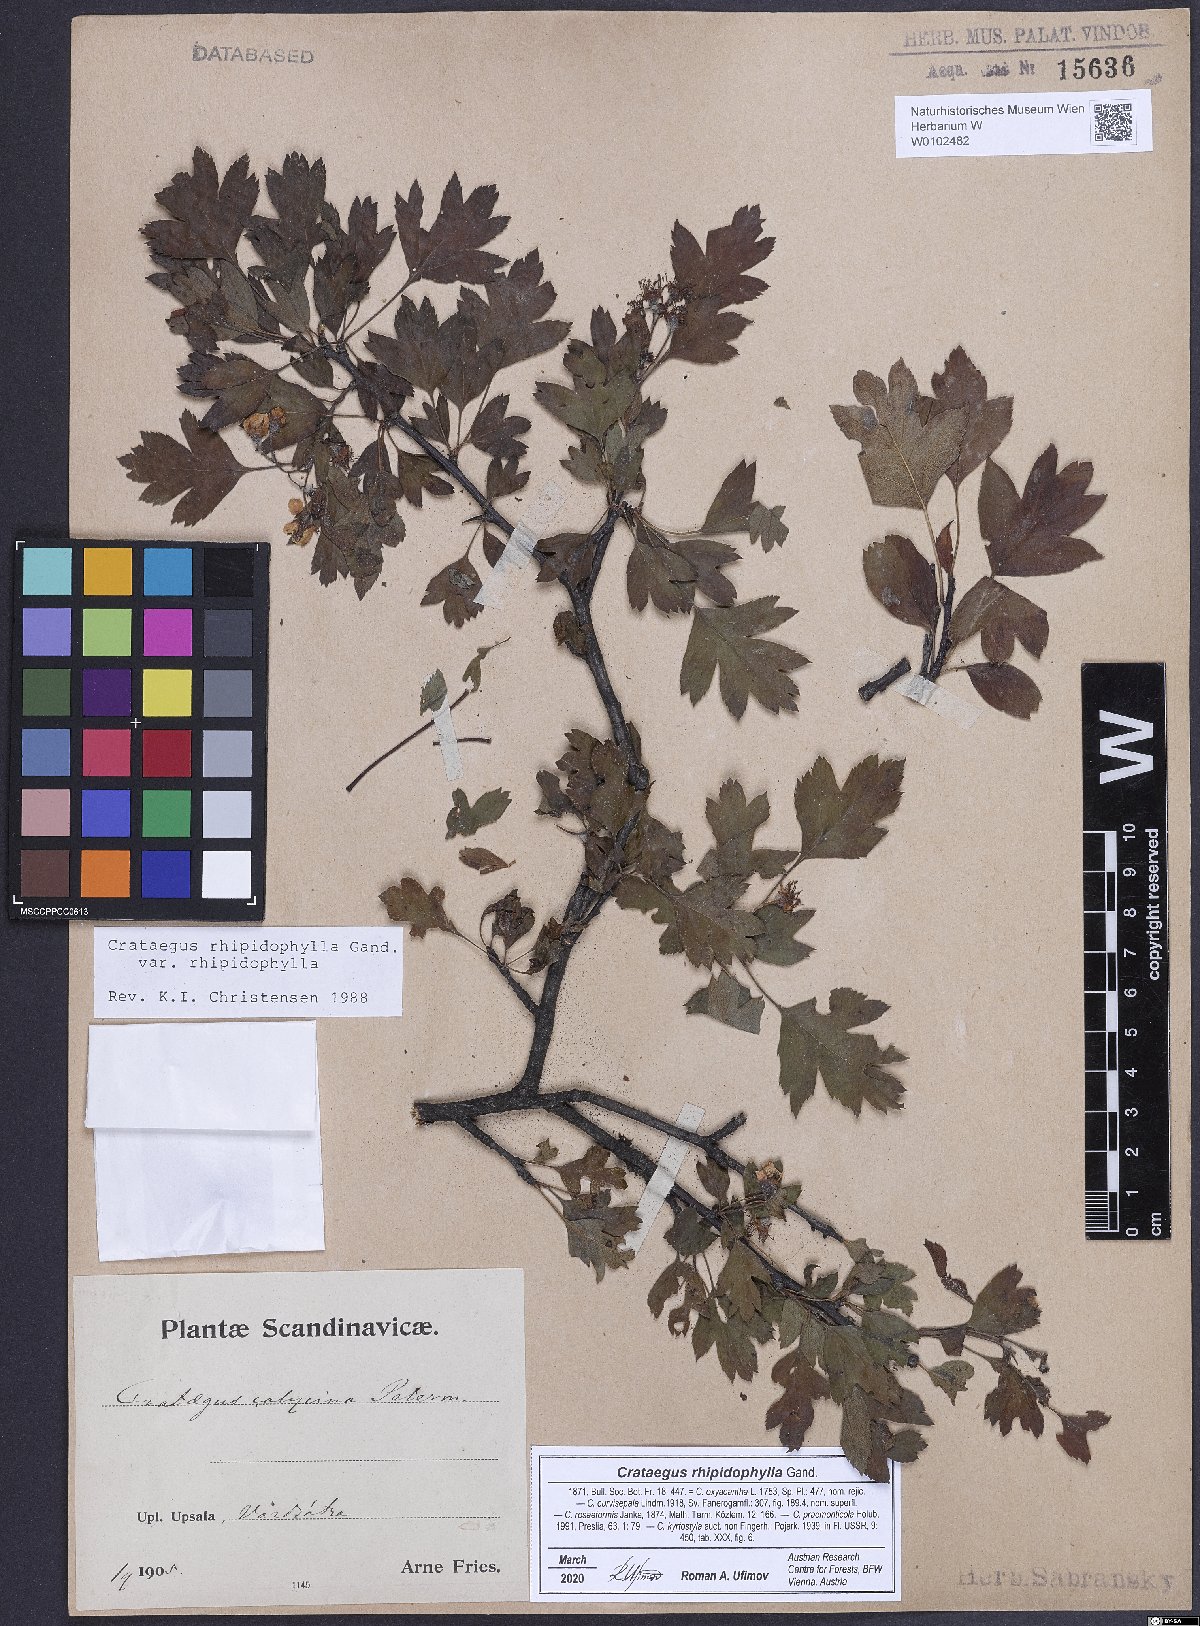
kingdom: Plantae
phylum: Tracheophyta
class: Magnoliopsida
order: Rosales
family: Rosaceae
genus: Crataegus
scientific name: Crataegus rhipidophylla
